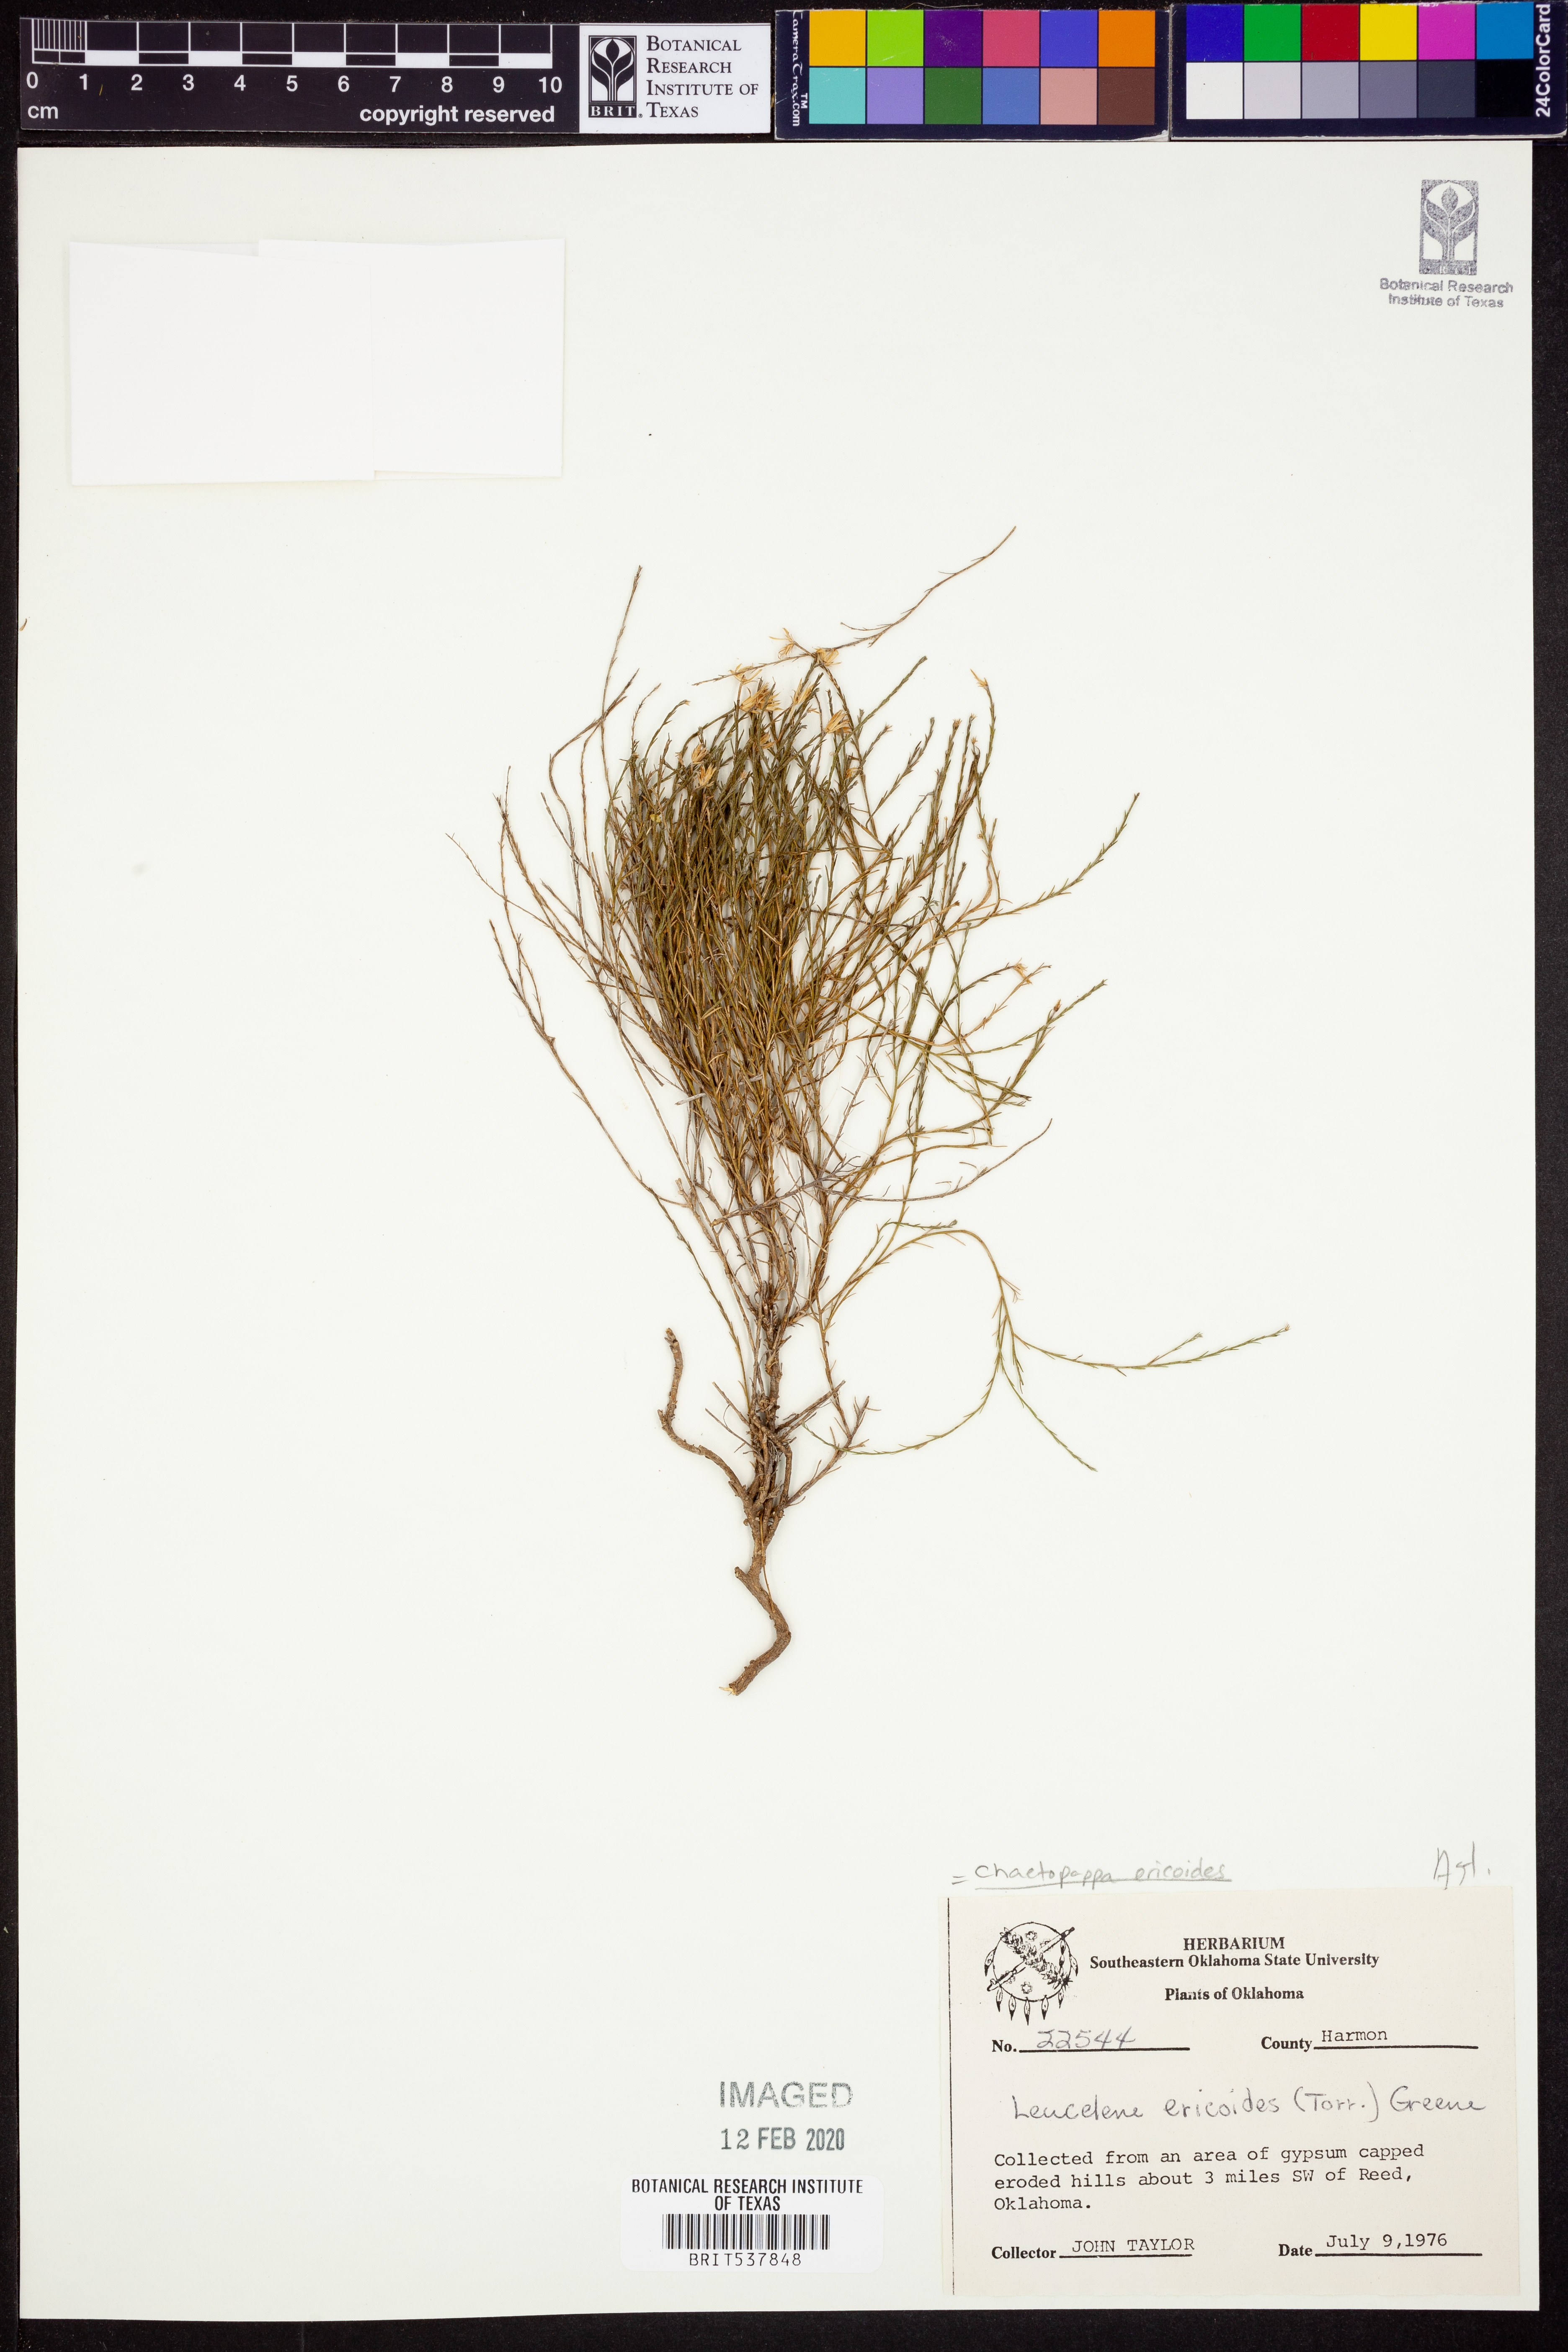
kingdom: Plantae
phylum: Tracheophyta
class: Magnoliopsida
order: Asterales
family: Asteraceae
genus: Chaetopappa
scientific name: Chaetopappa ericoides
